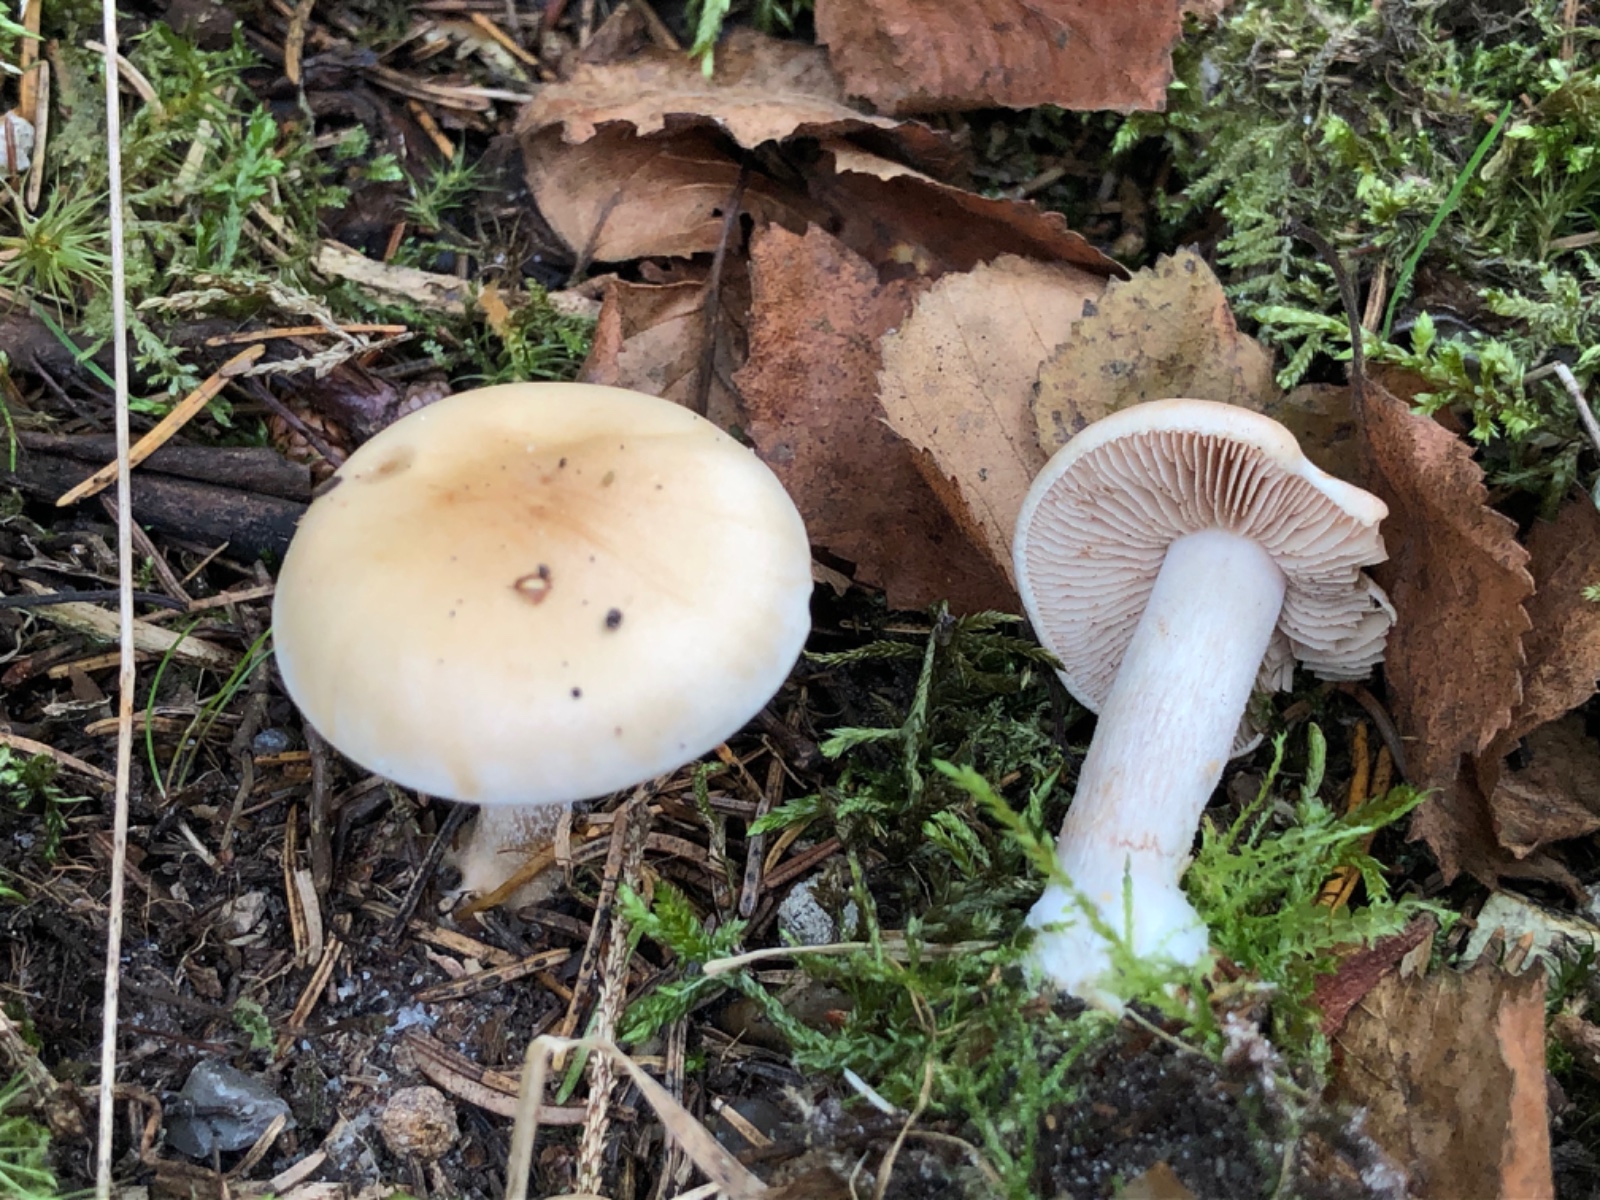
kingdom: Fungi
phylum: Basidiomycota
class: Agaricomycetes
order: Agaricales
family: Hymenogastraceae
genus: Hebeloma
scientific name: Hebeloma
